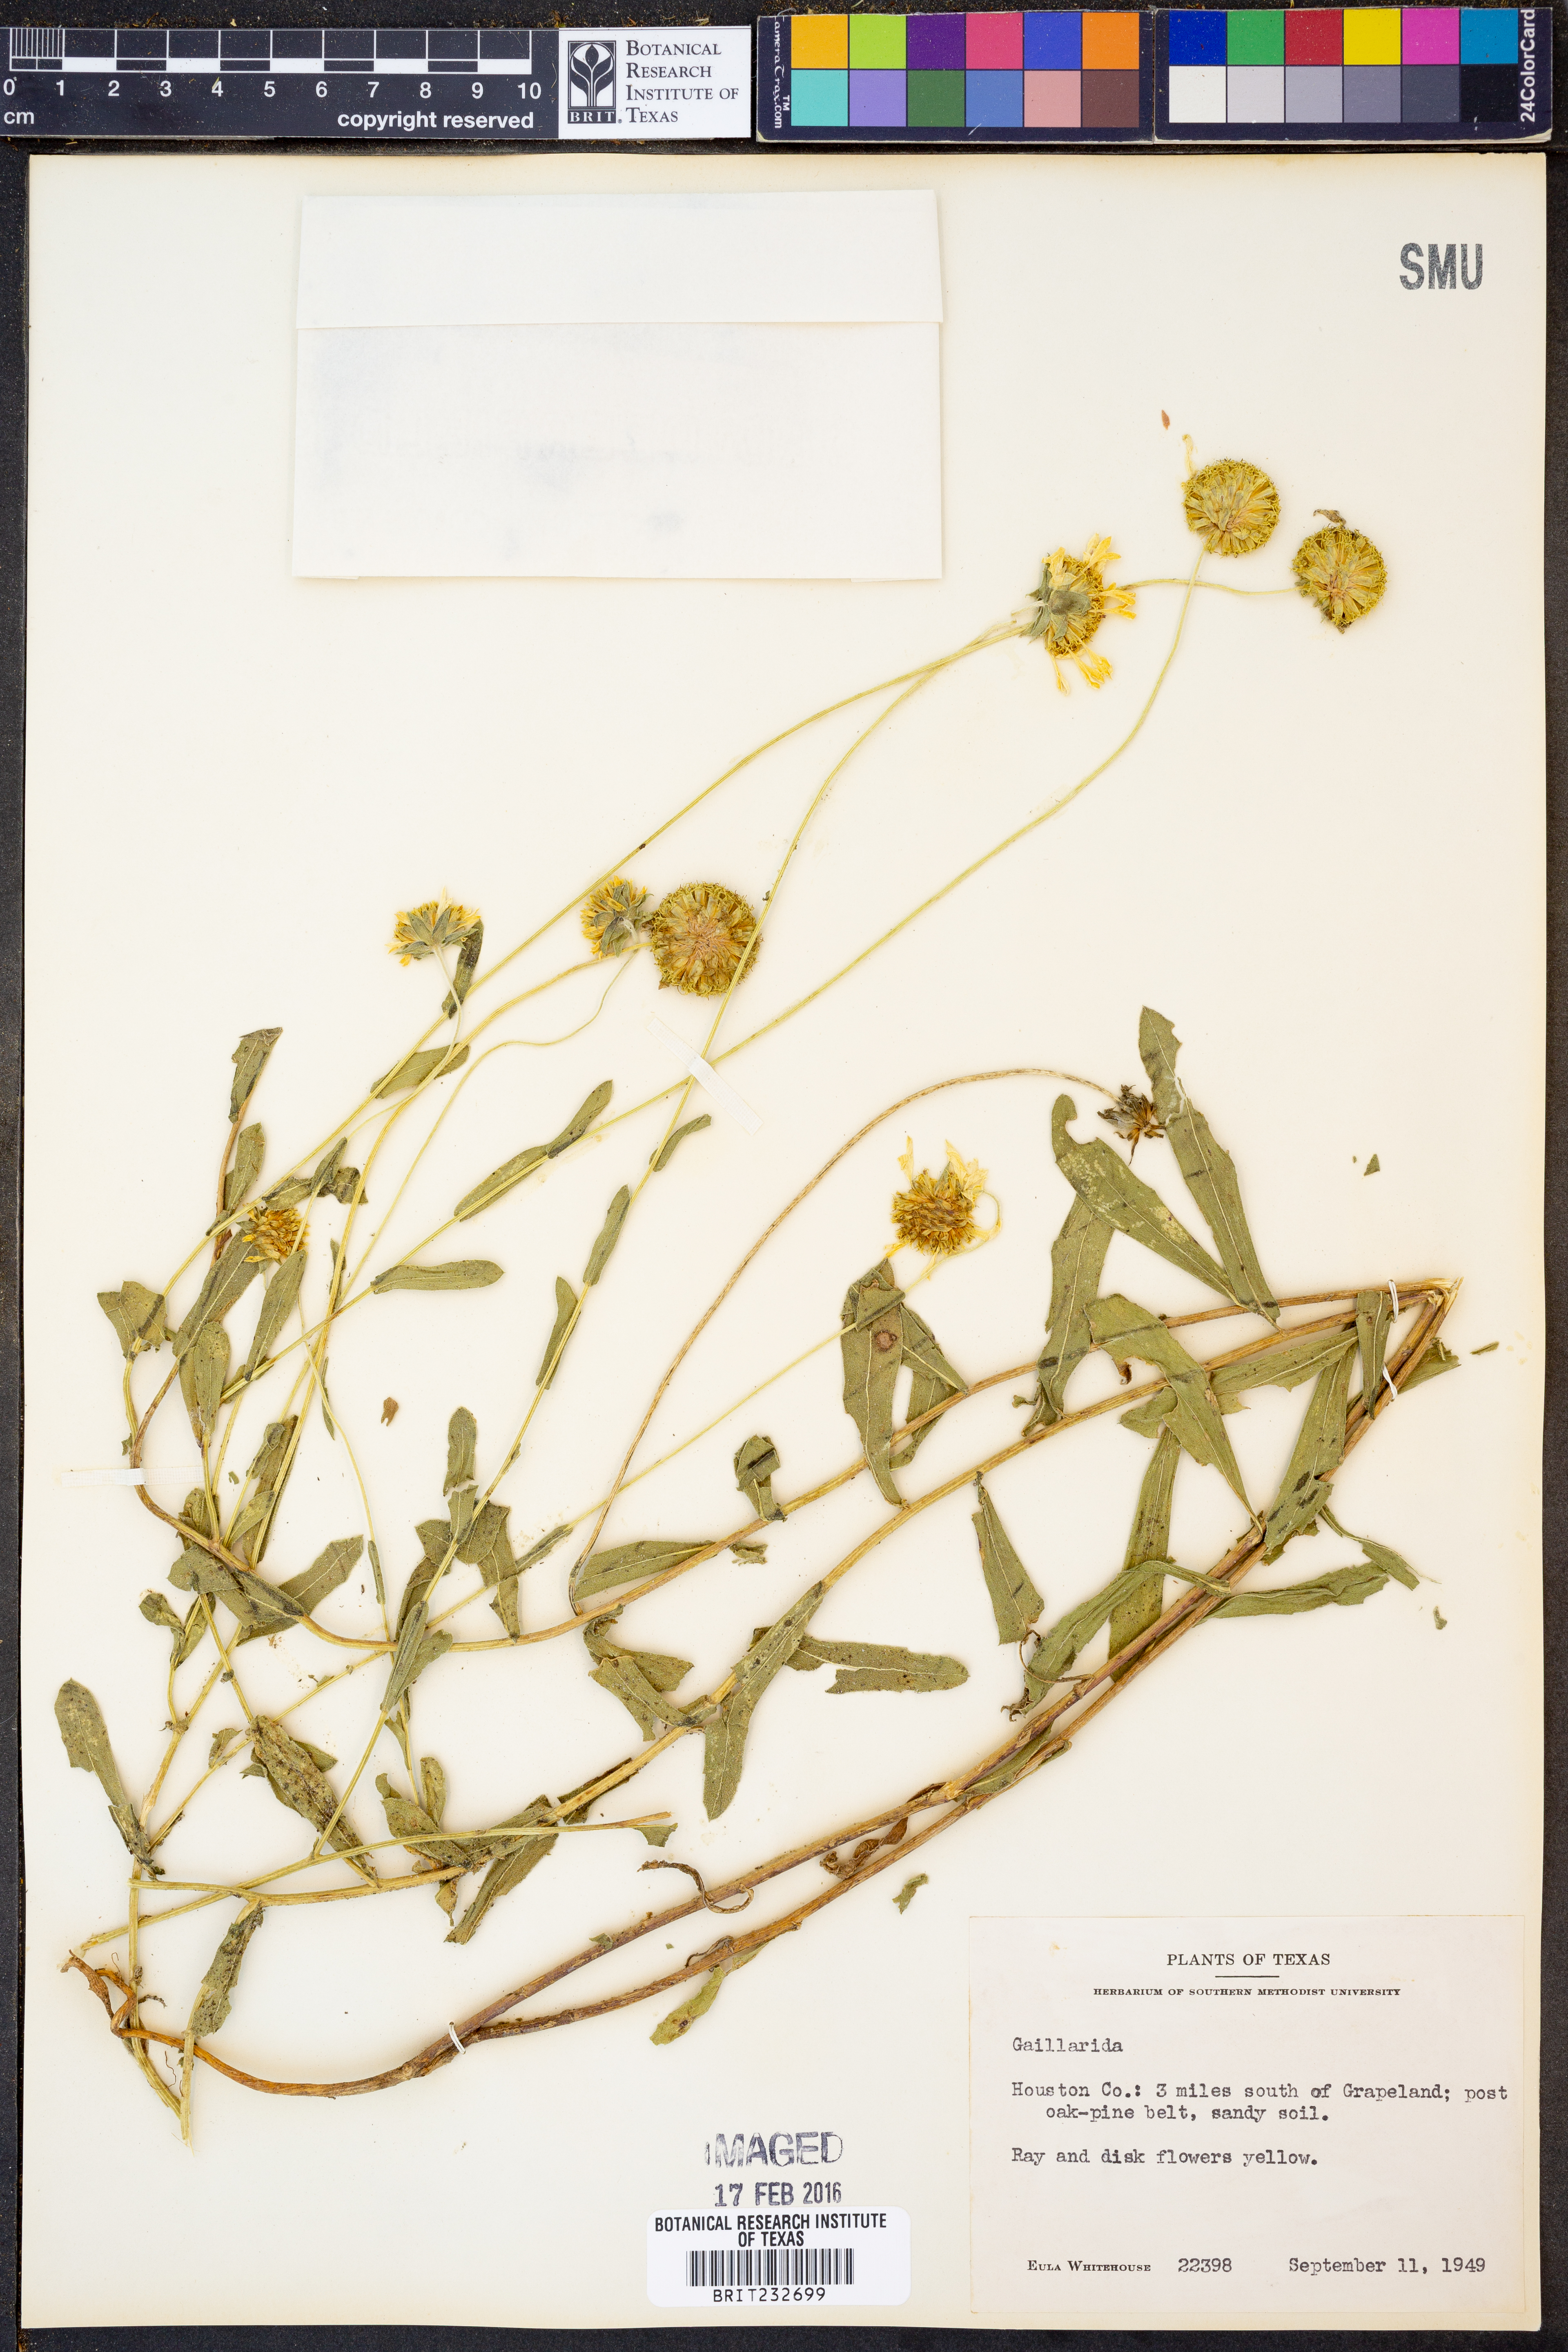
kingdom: Plantae
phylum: Tracheophyta
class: Magnoliopsida
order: Asterales
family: Asteraceae
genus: Gaillardia
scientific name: Gaillardia
